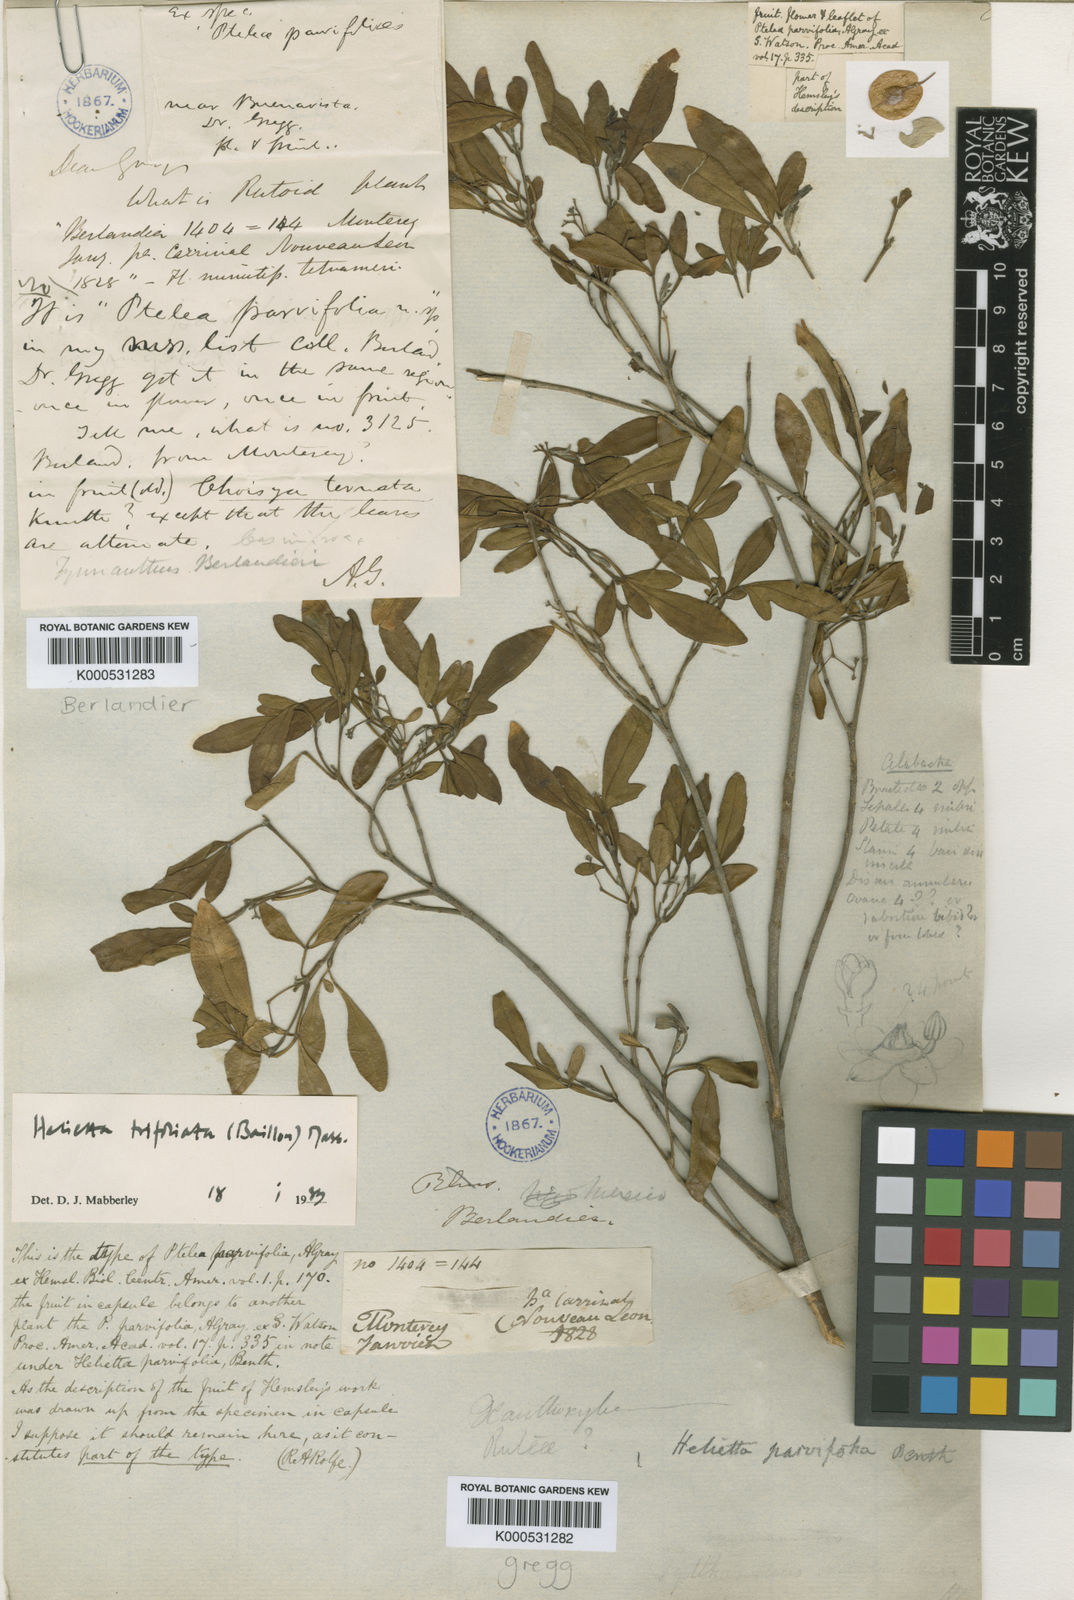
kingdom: Plantae
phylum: Tracheophyta
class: Magnoliopsida
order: Sapindales
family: Rutaceae
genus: Helietta
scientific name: Helietta parvifolia
